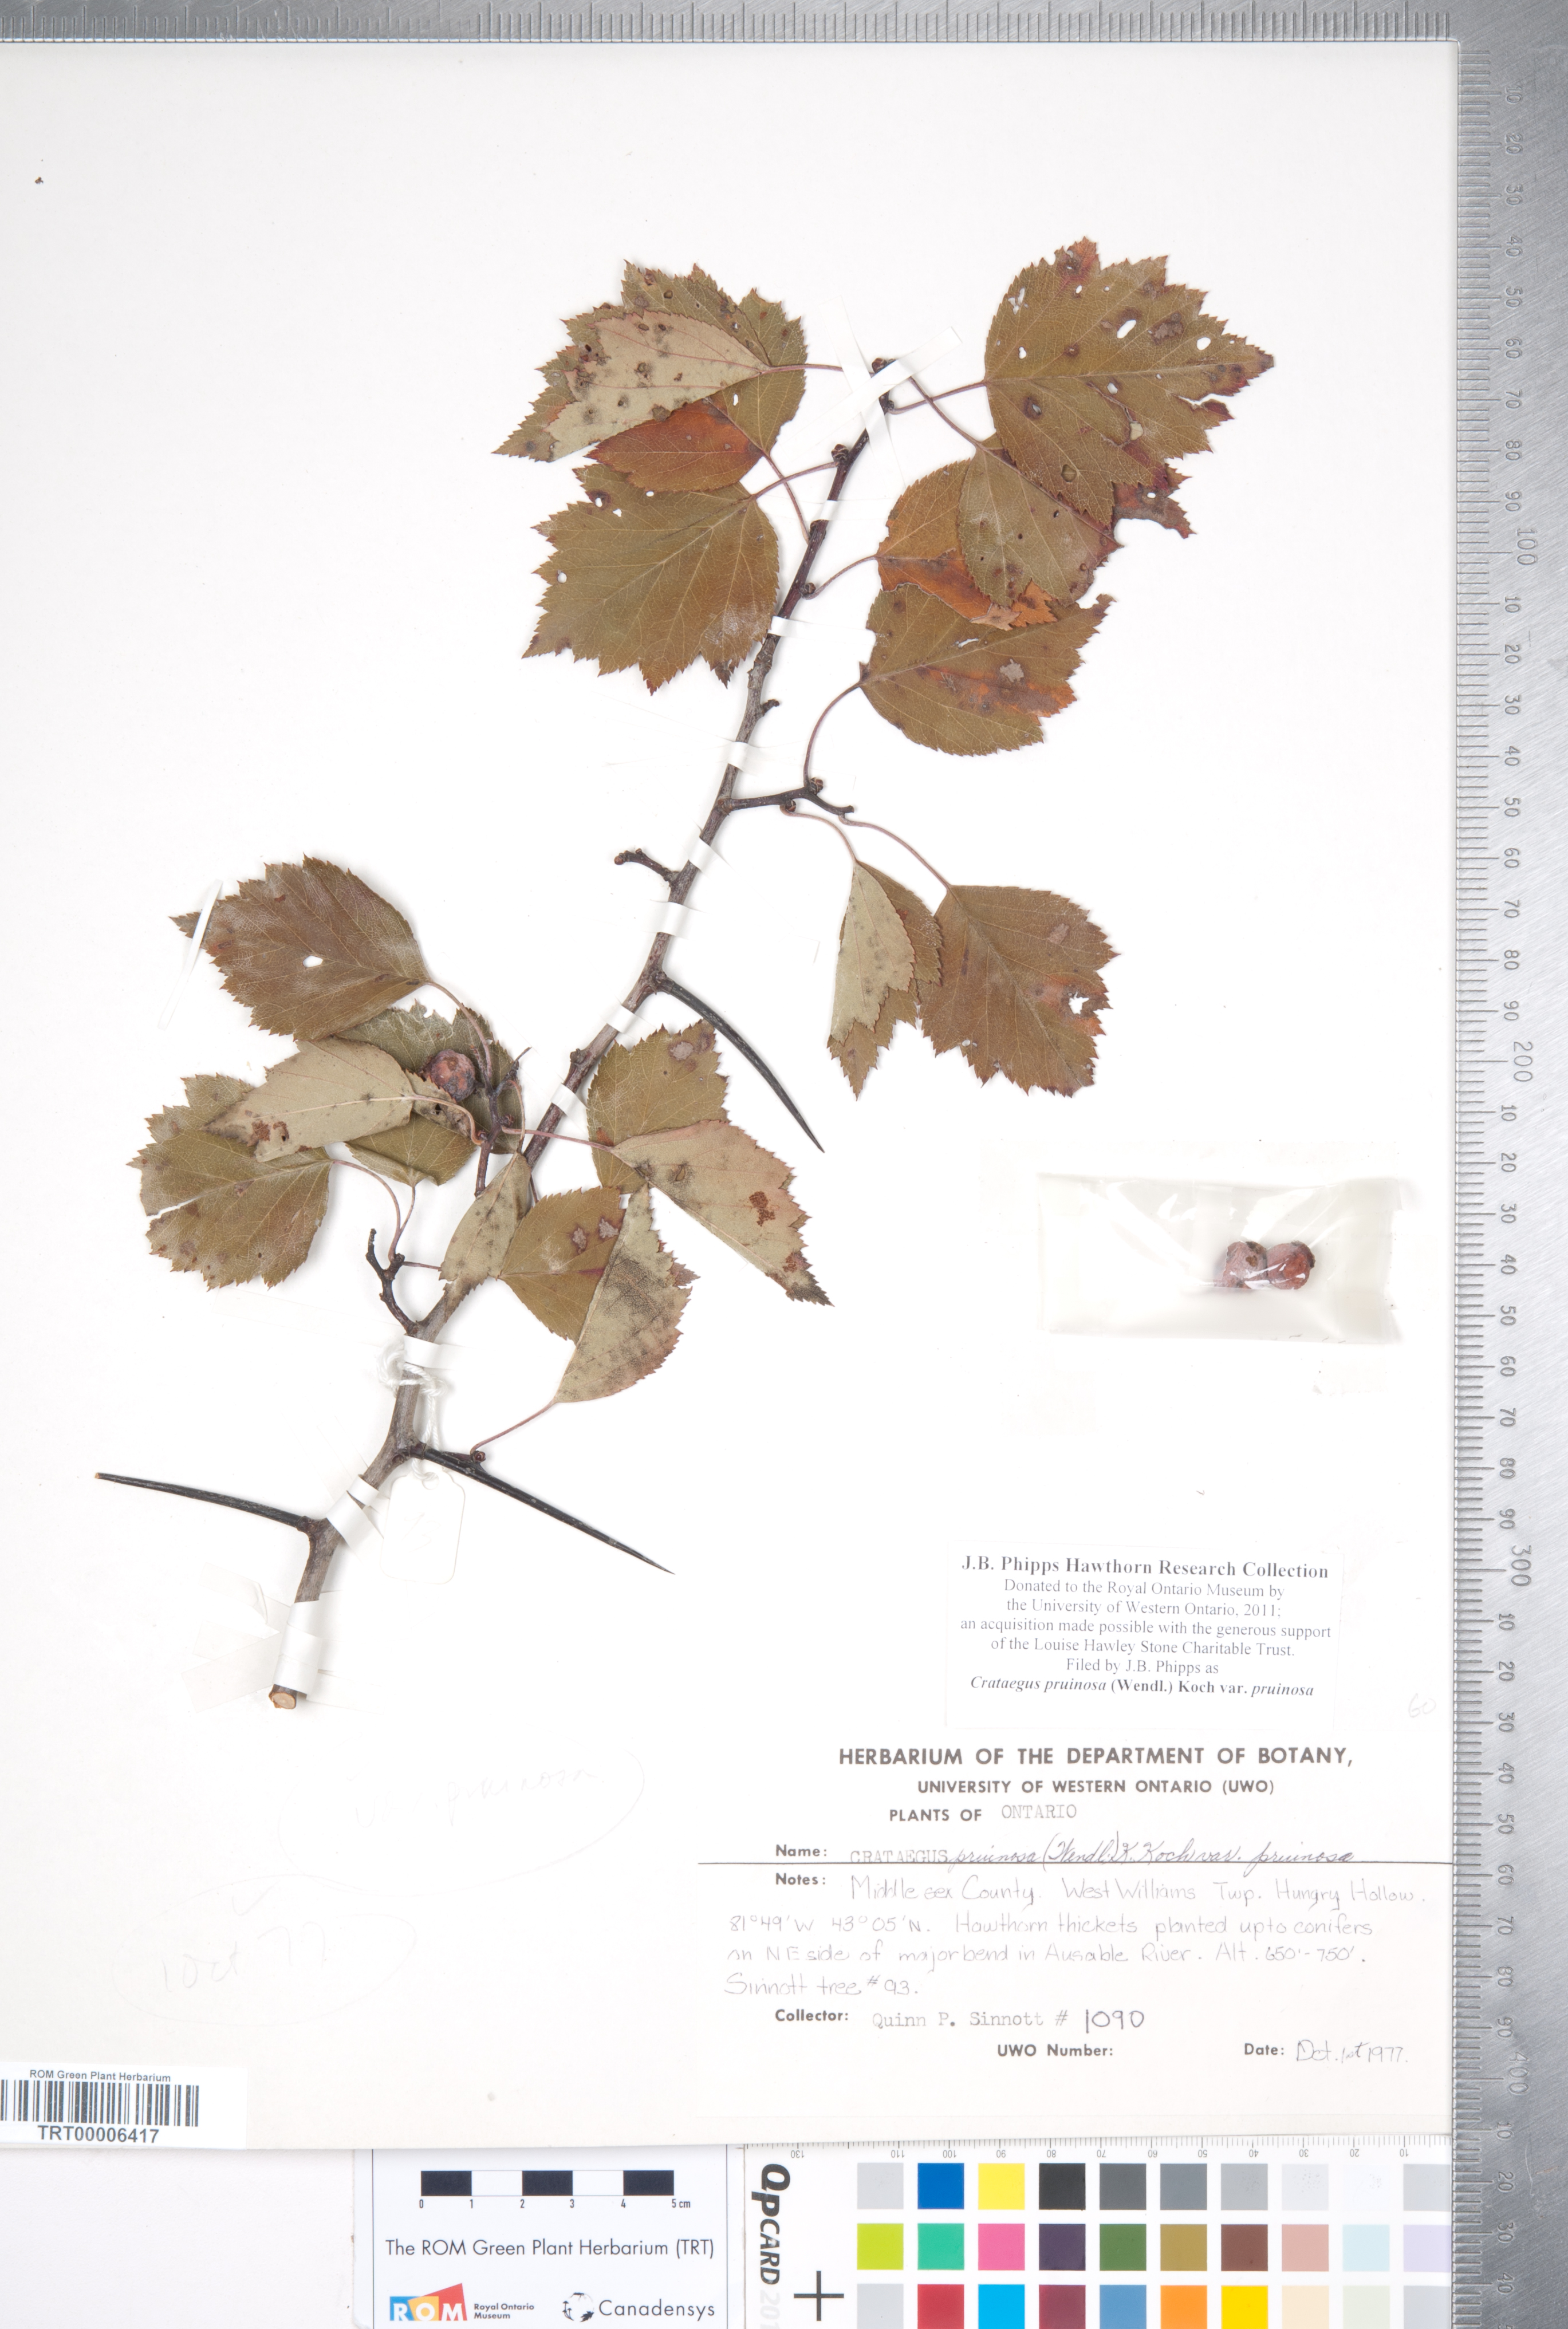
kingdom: Plantae
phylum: Tracheophyta
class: Magnoliopsida
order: Rosales
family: Rosaceae
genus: Crataegus
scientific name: Crataegus pruinosa
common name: Waxy-fruit hawthorn
